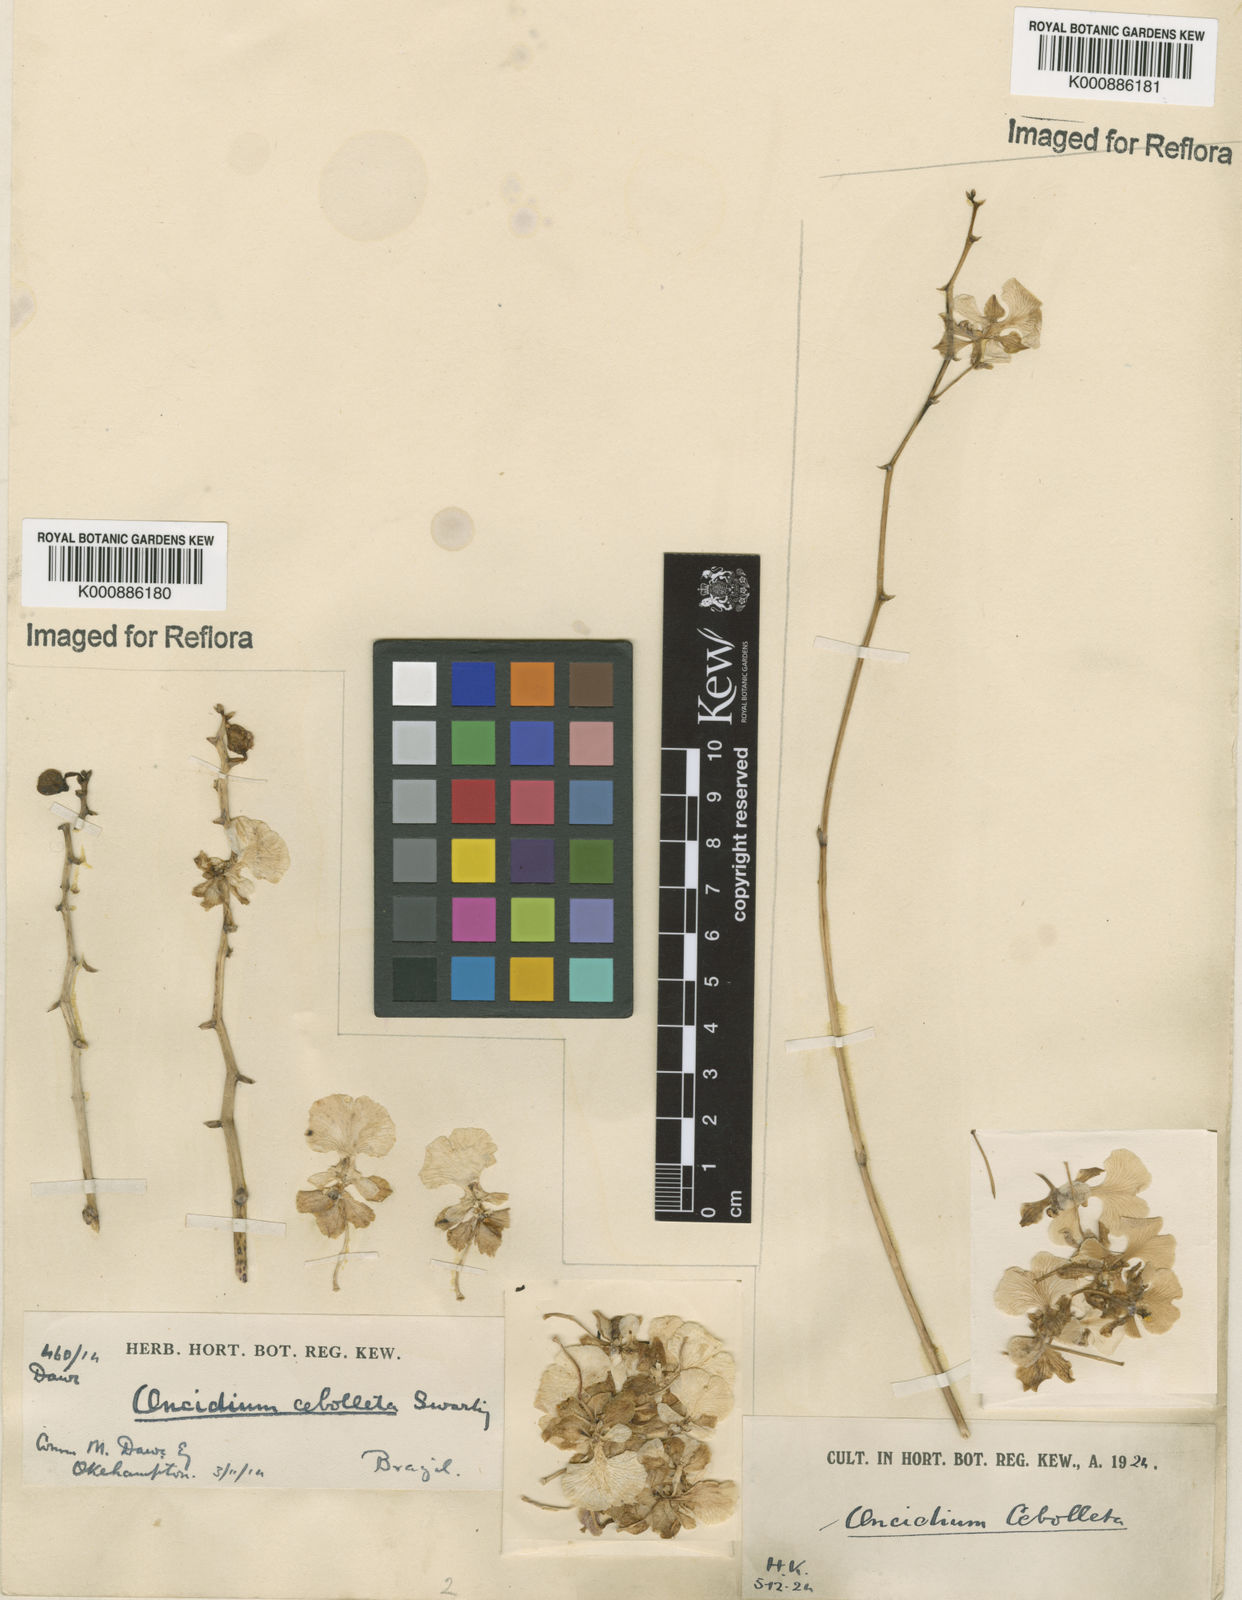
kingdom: Plantae
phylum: Tracheophyta
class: Liliopsida
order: Asparagales
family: Orchidaceae
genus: Trichocentrum
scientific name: Trichocentrum cebolleta
